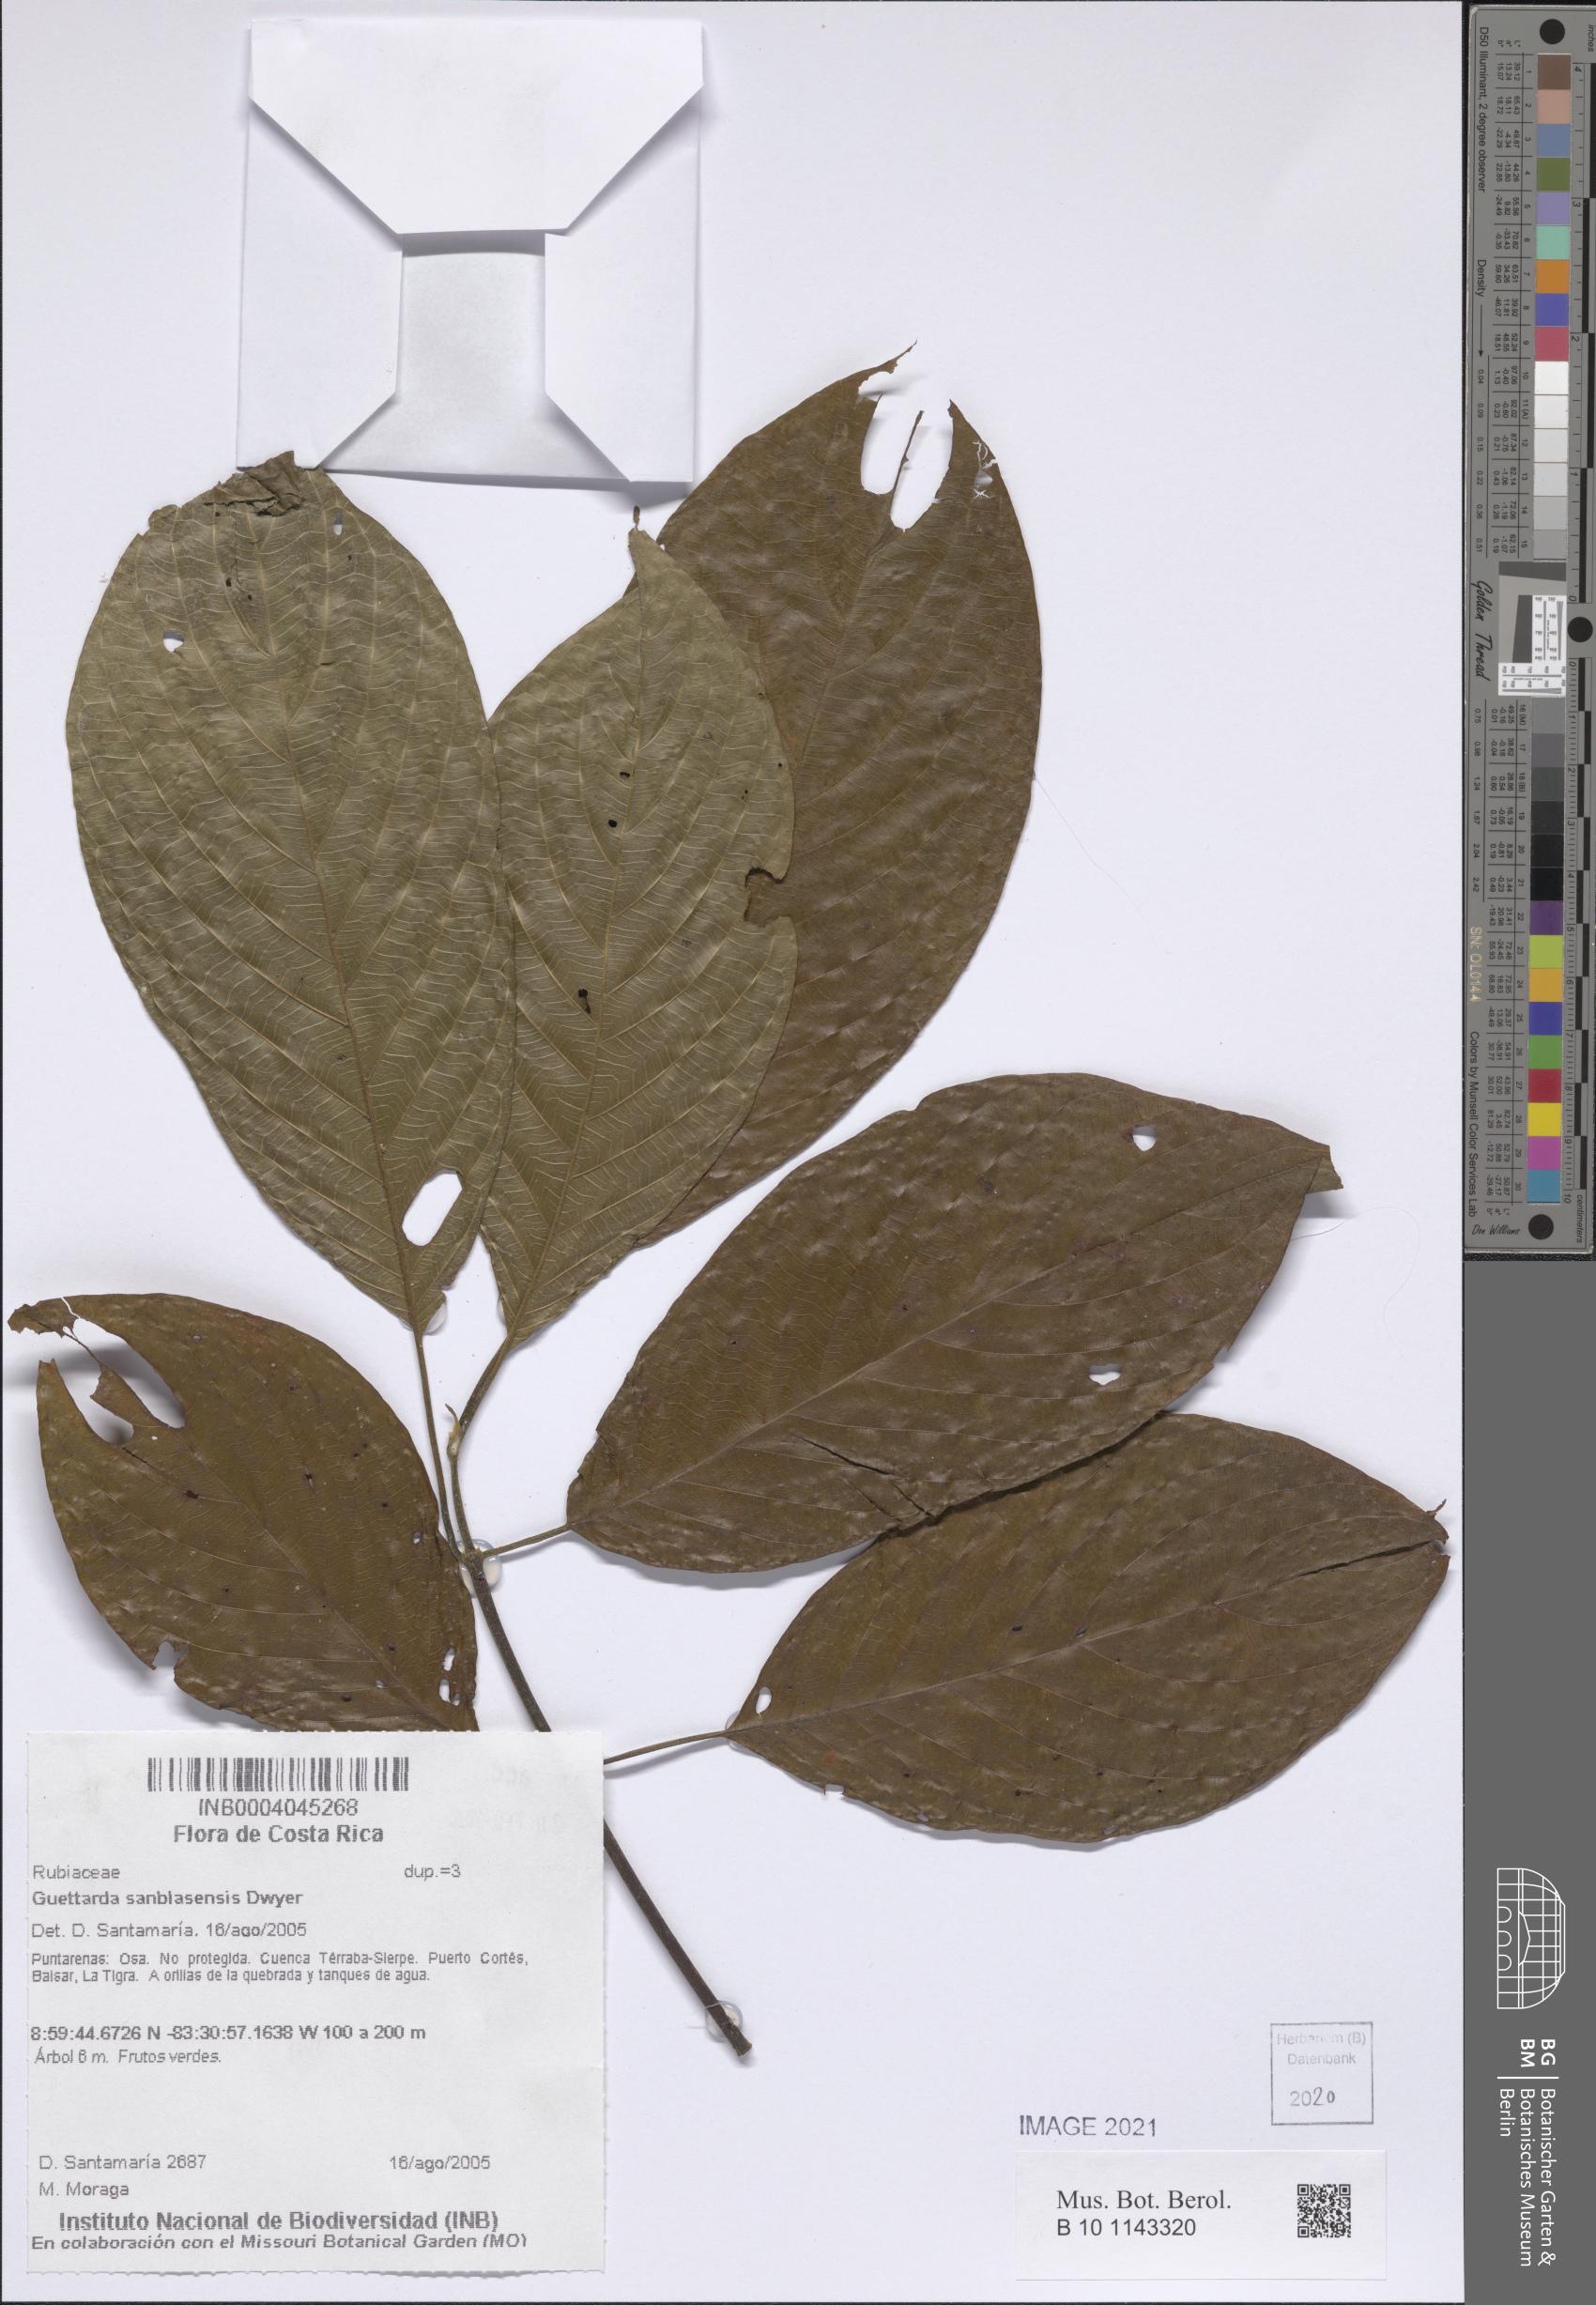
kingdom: Plantae
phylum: Tracheophyta
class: Magnoliopsida
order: Gentianales
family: Rubiaceae
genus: Guettarda
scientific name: Guettarda sanblasensis
